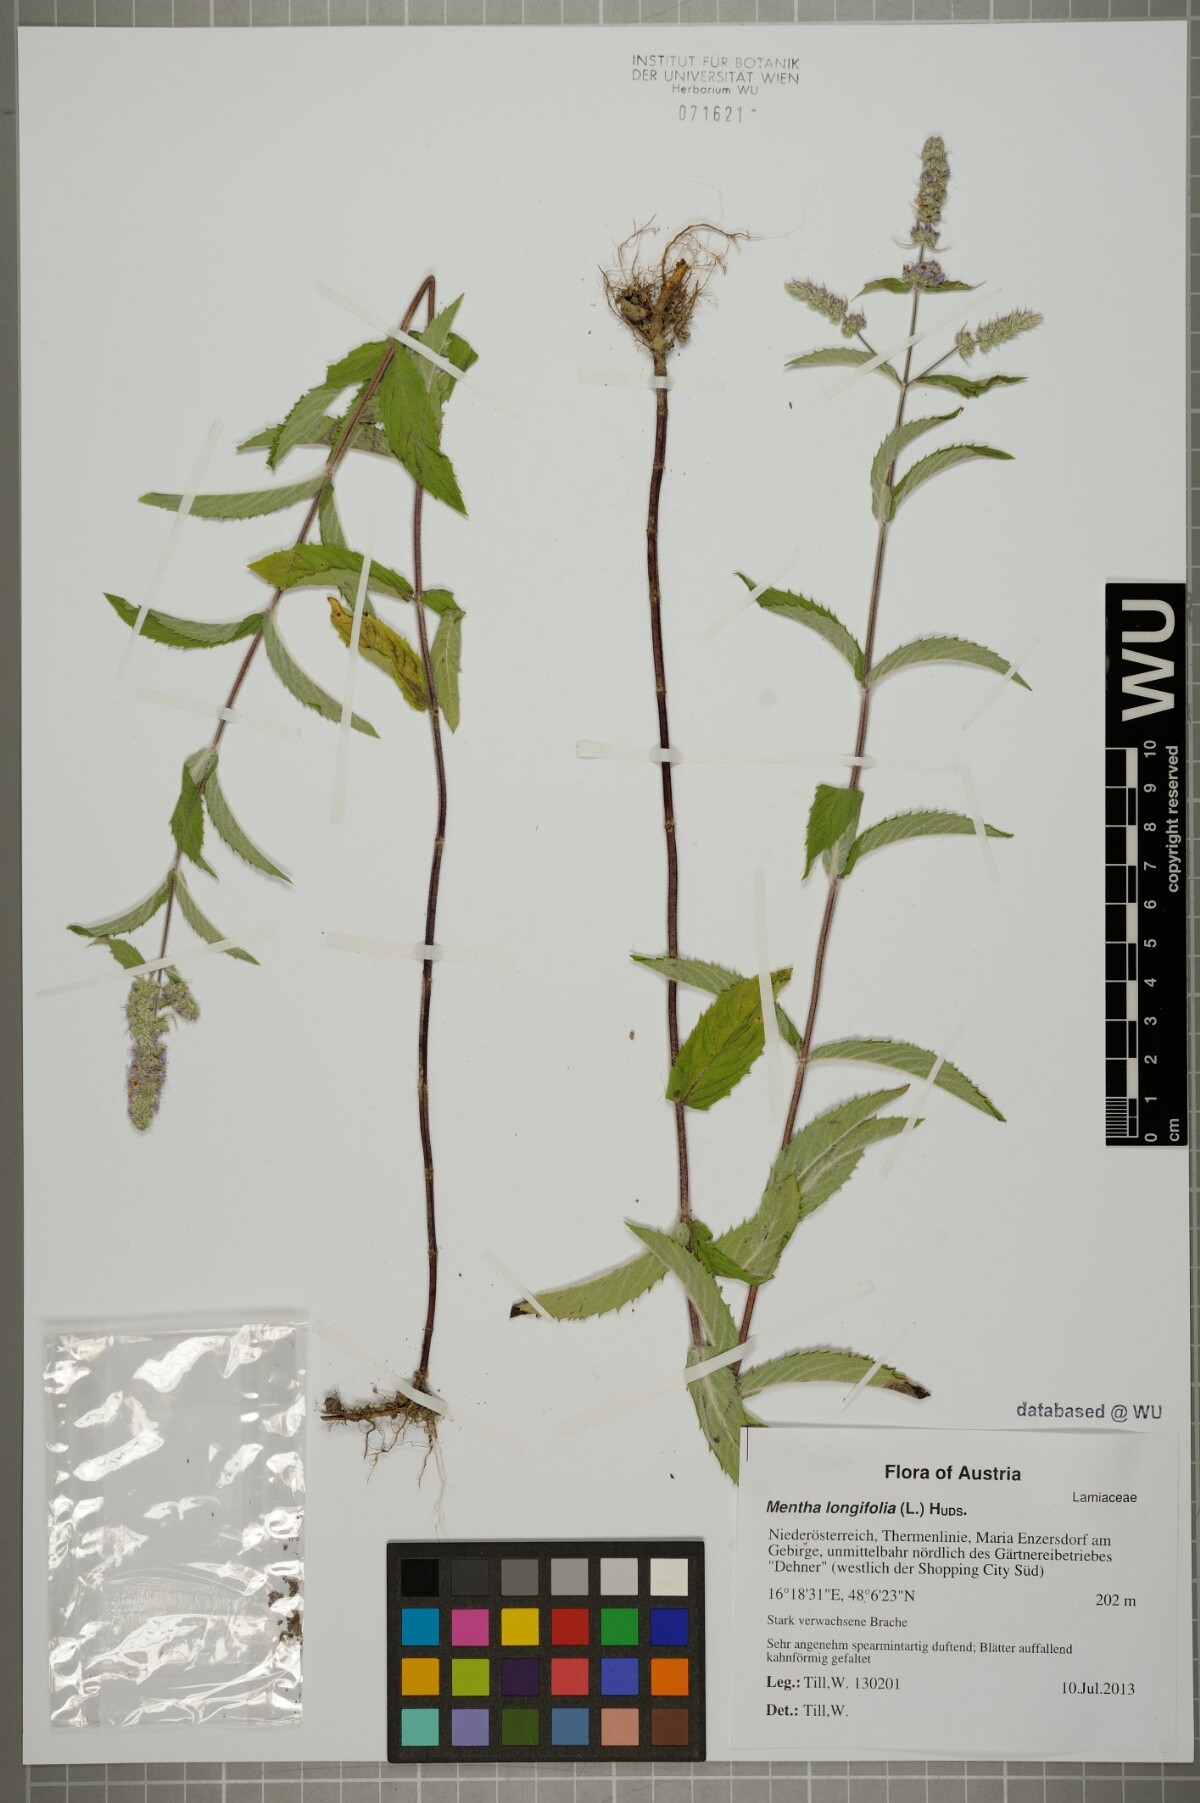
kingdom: Plantae
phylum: Tracheophyta
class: Magnoliopsida
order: Lamiales
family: Lamiaceae
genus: Mentha
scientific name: Mentha longifolia
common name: Horse mint
